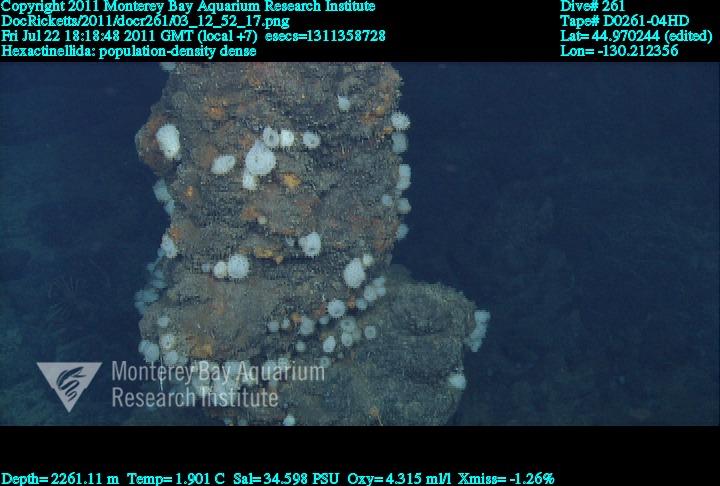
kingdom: Animalia
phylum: Porifera
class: Hexactinellida
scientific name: Hexactinellida
